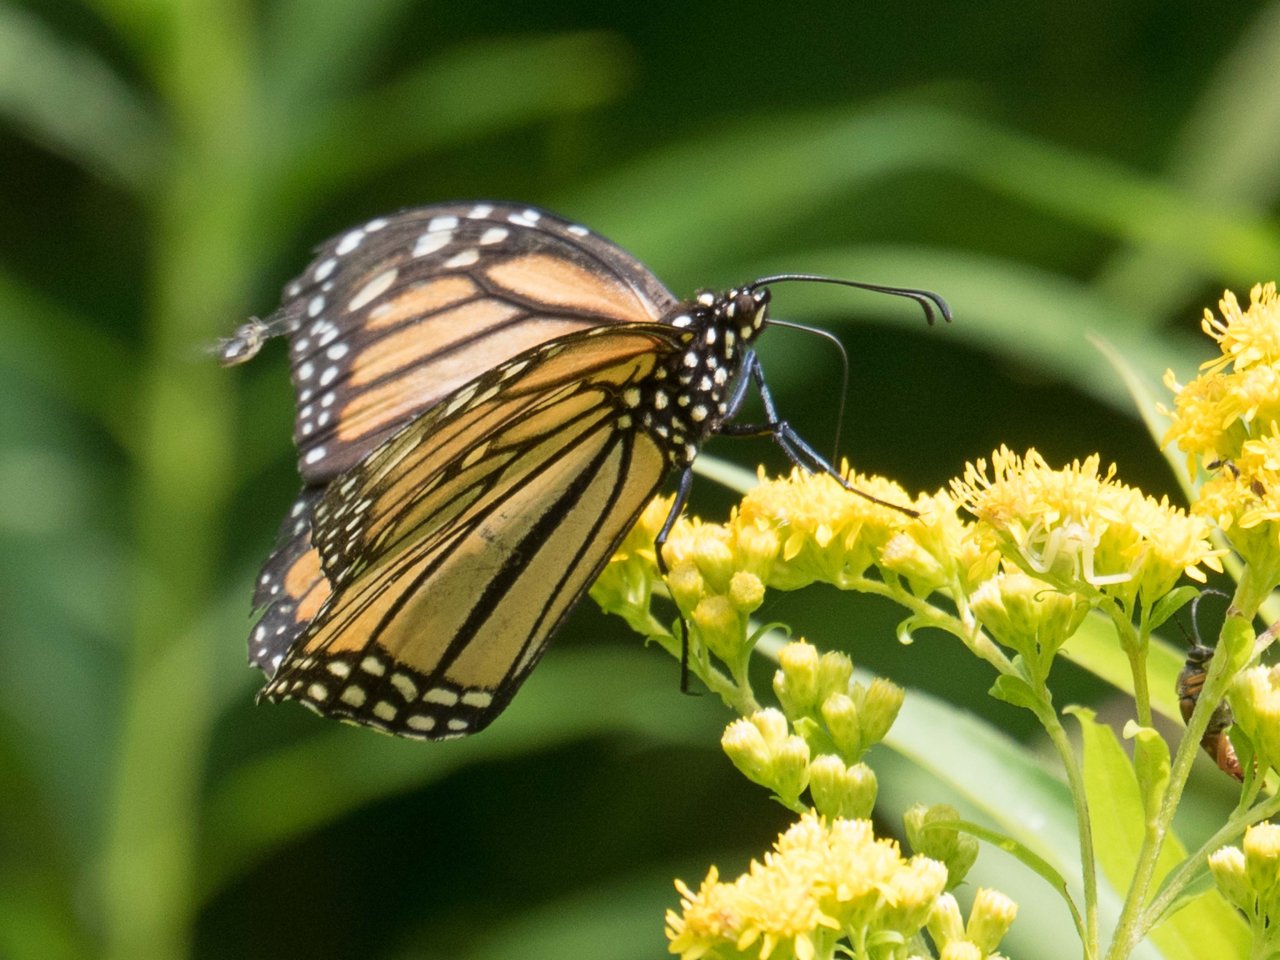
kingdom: Animalia
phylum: Arthropoda
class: Insecta
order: Lepidoptera
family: Nymphalidae
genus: Danaus
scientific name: Danaus plexippus
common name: Monarch
